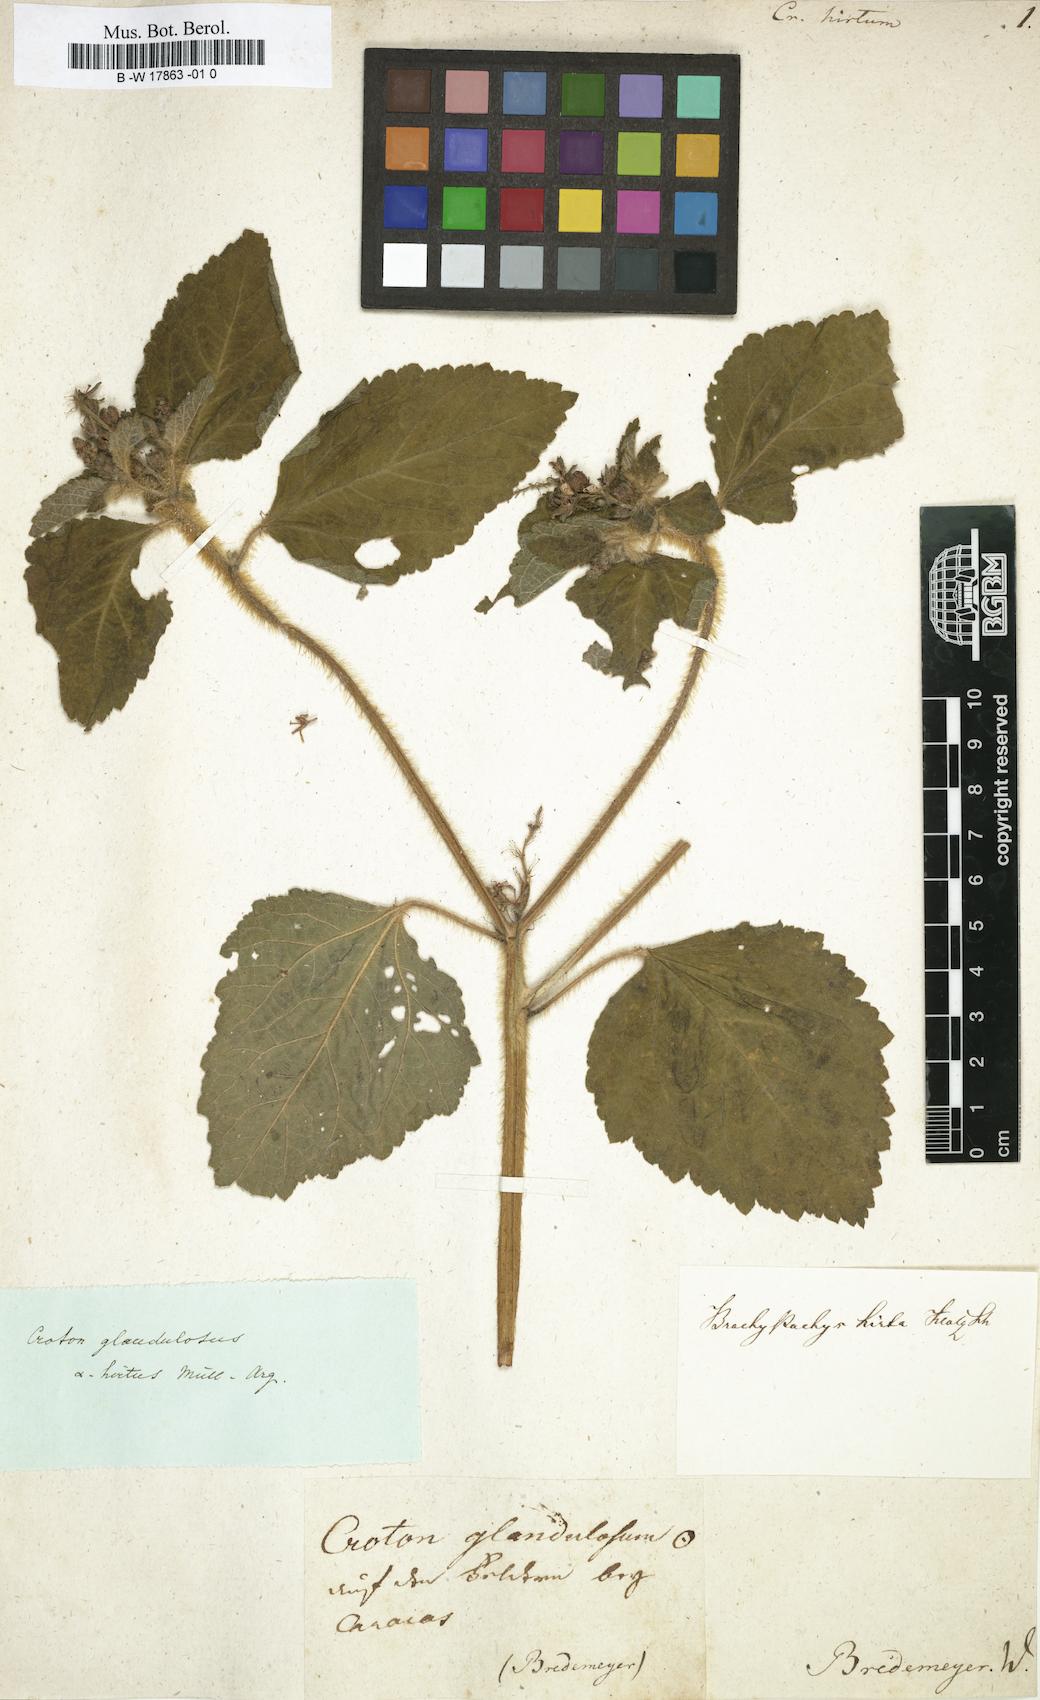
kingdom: Plantae
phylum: Tracheophyta
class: Magnoliopsida
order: Malpighiales
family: Euphorbiaceae
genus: Croton
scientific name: Croton hirtus
